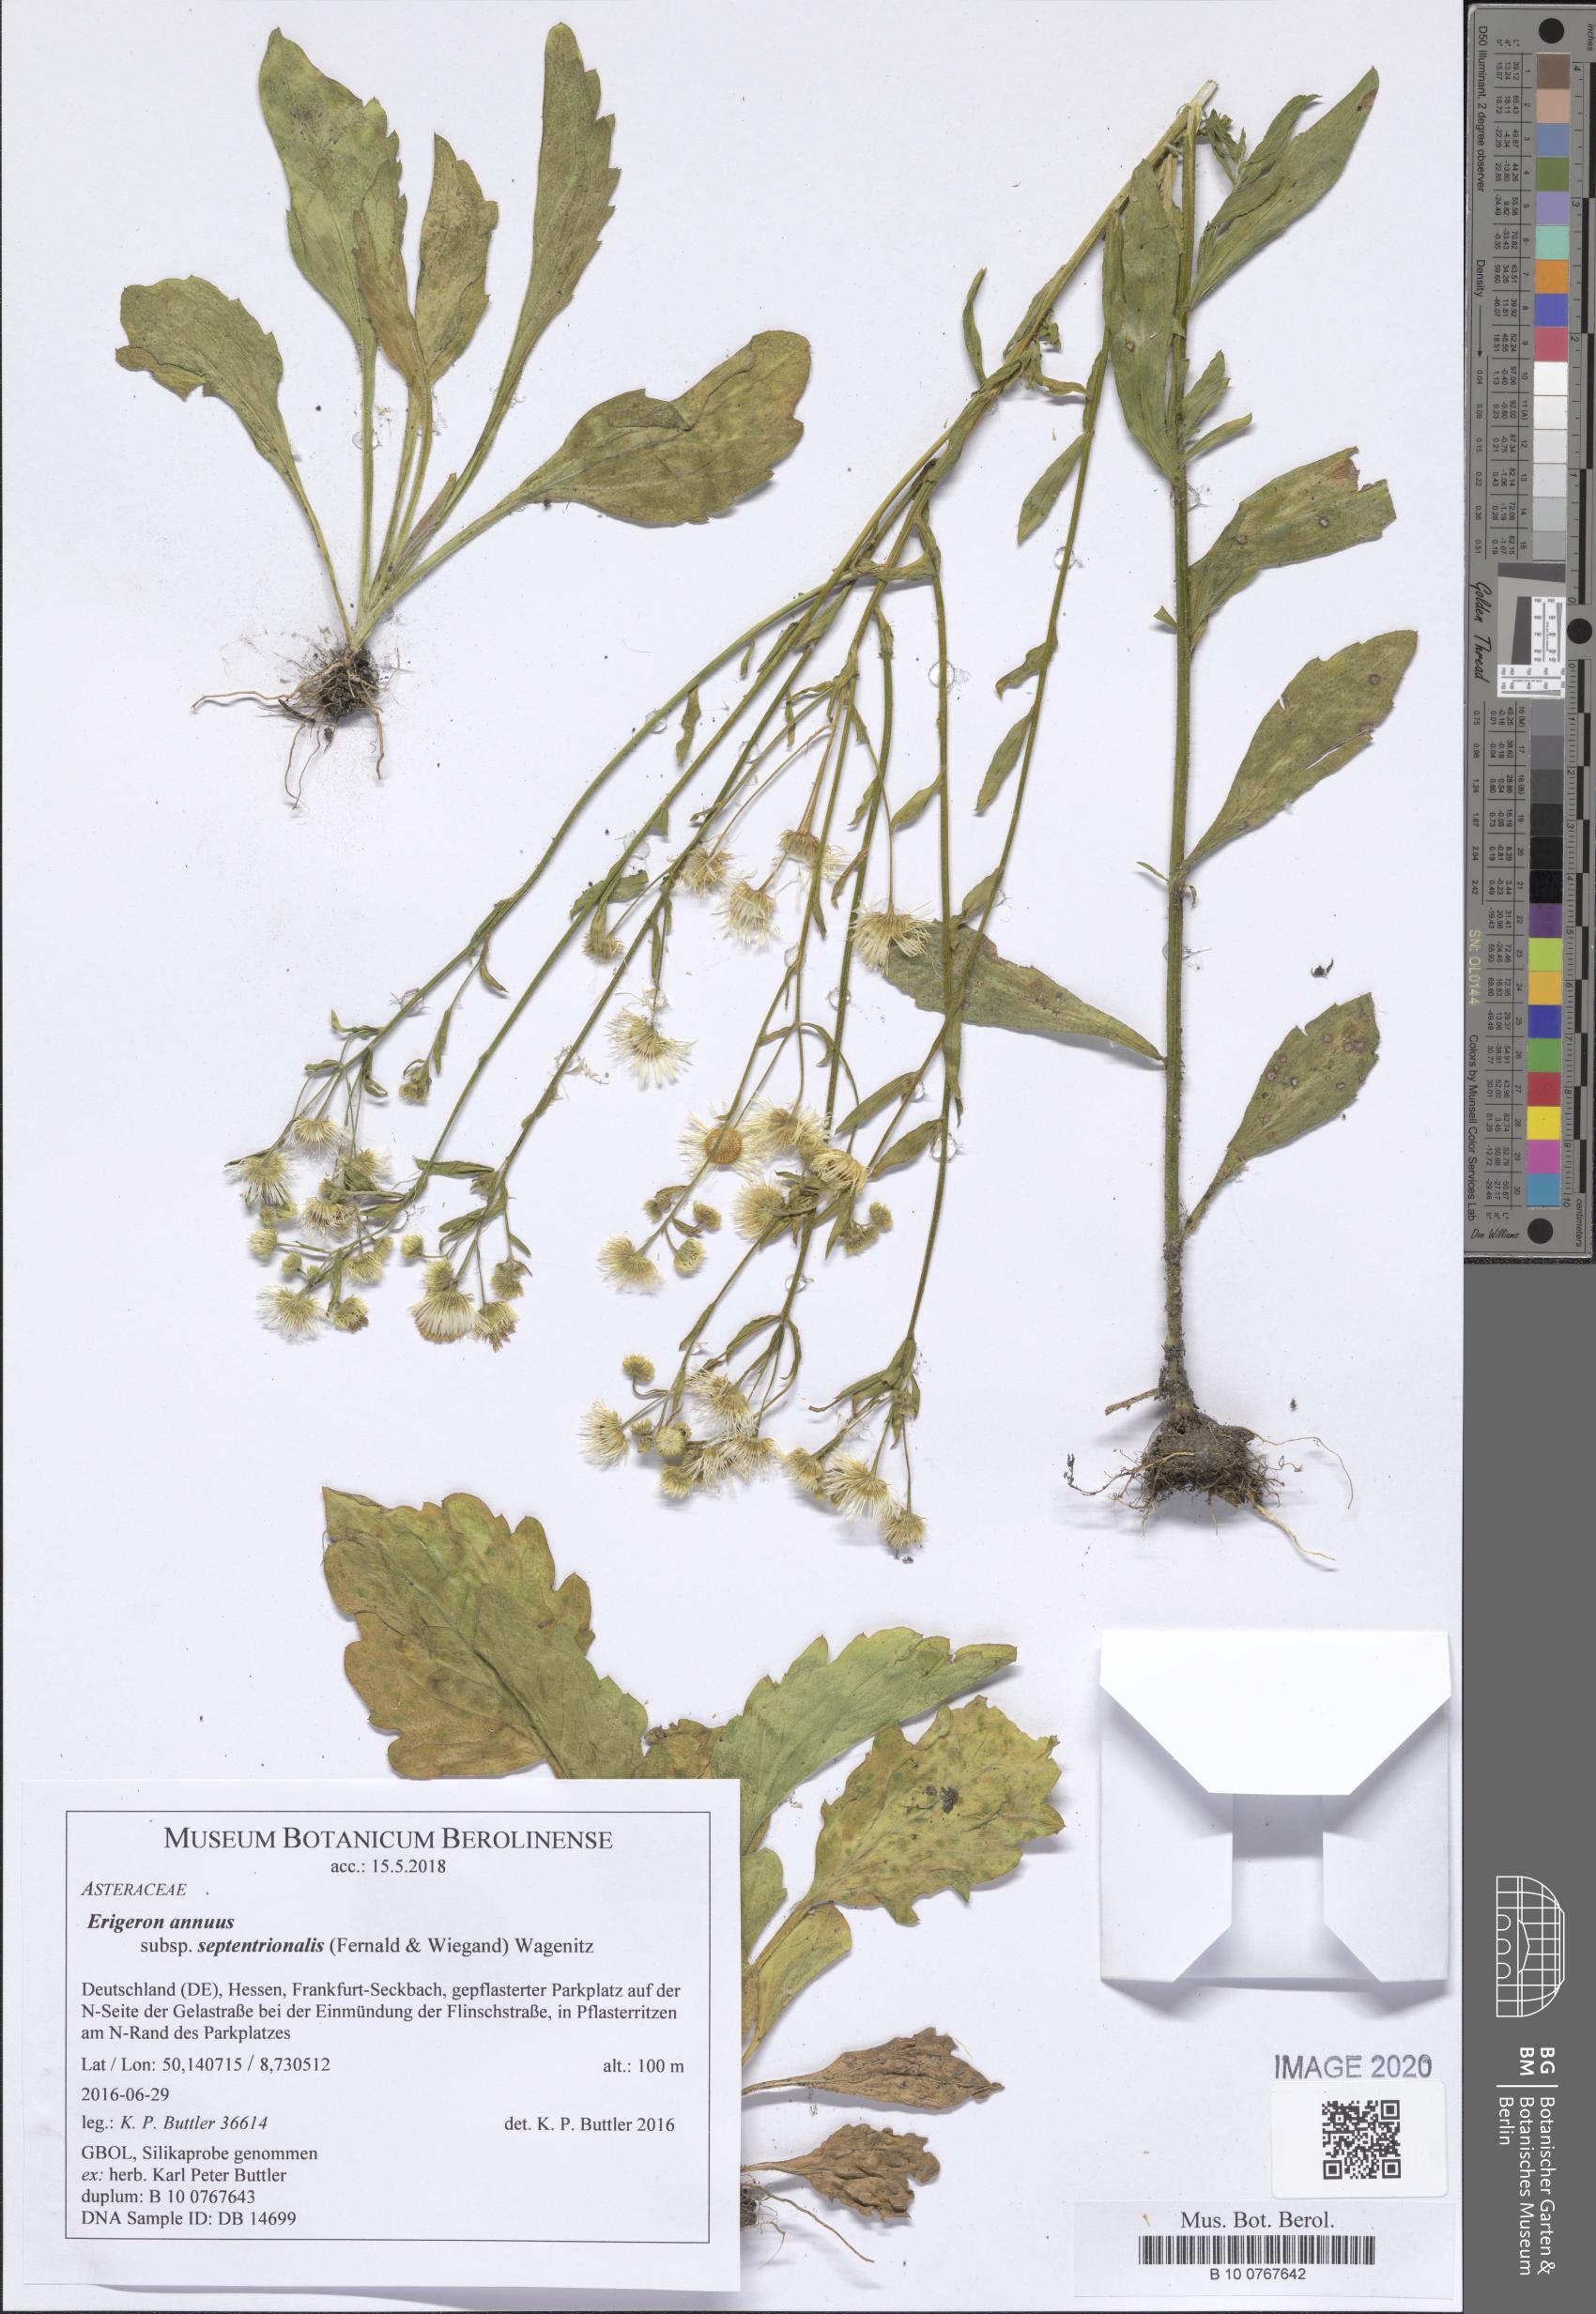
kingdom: Plantae
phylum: Tracheophyta
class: Magnoliopsida
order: Asterales
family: Asteraceae
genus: Erigeron
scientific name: Erigeron annuus
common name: Tall fleabane
